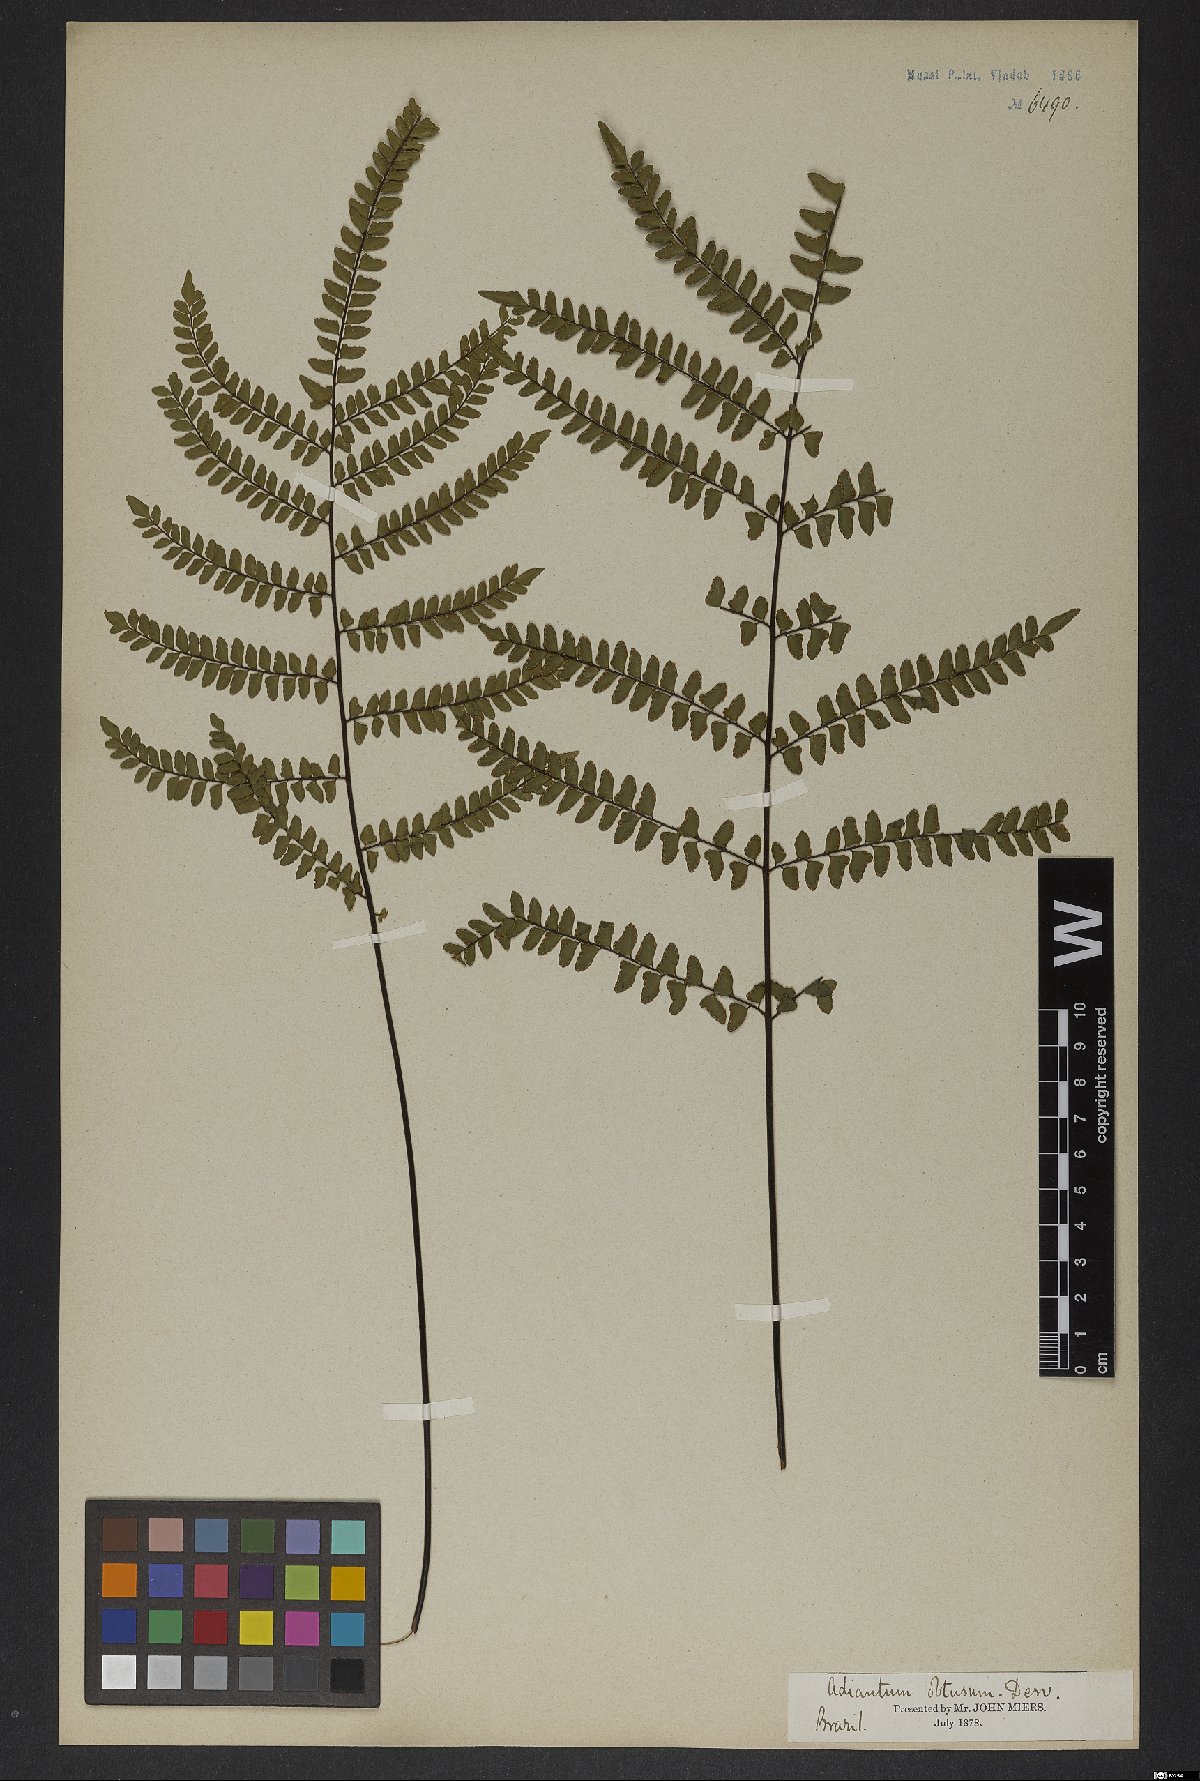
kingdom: Plantae
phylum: Tracheophyta
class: Polypodiopsida
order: Polypodiales
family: Pteridaceae
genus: Adiantum
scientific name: Adiantum serratodentatum
